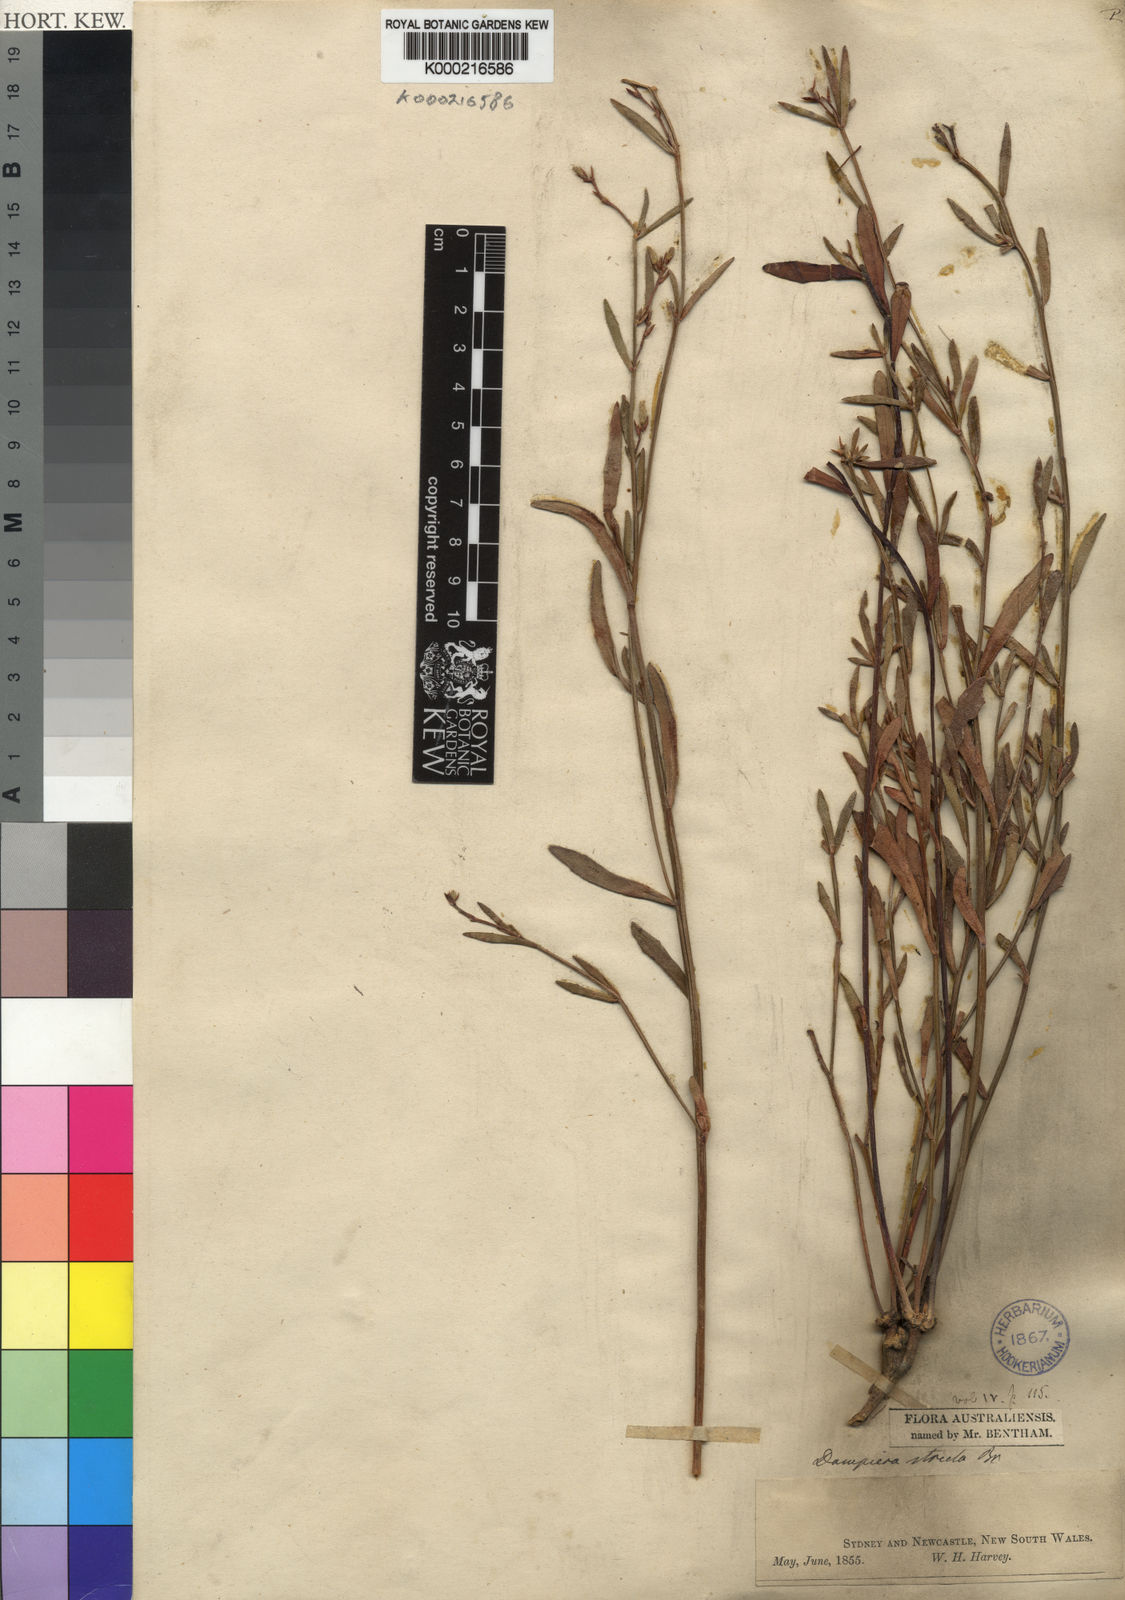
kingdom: Plantae
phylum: Tracheophyta
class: Magnoliopsida
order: Asterales
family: Goodeniaceae
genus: Dampiera
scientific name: Dampiera stricta
